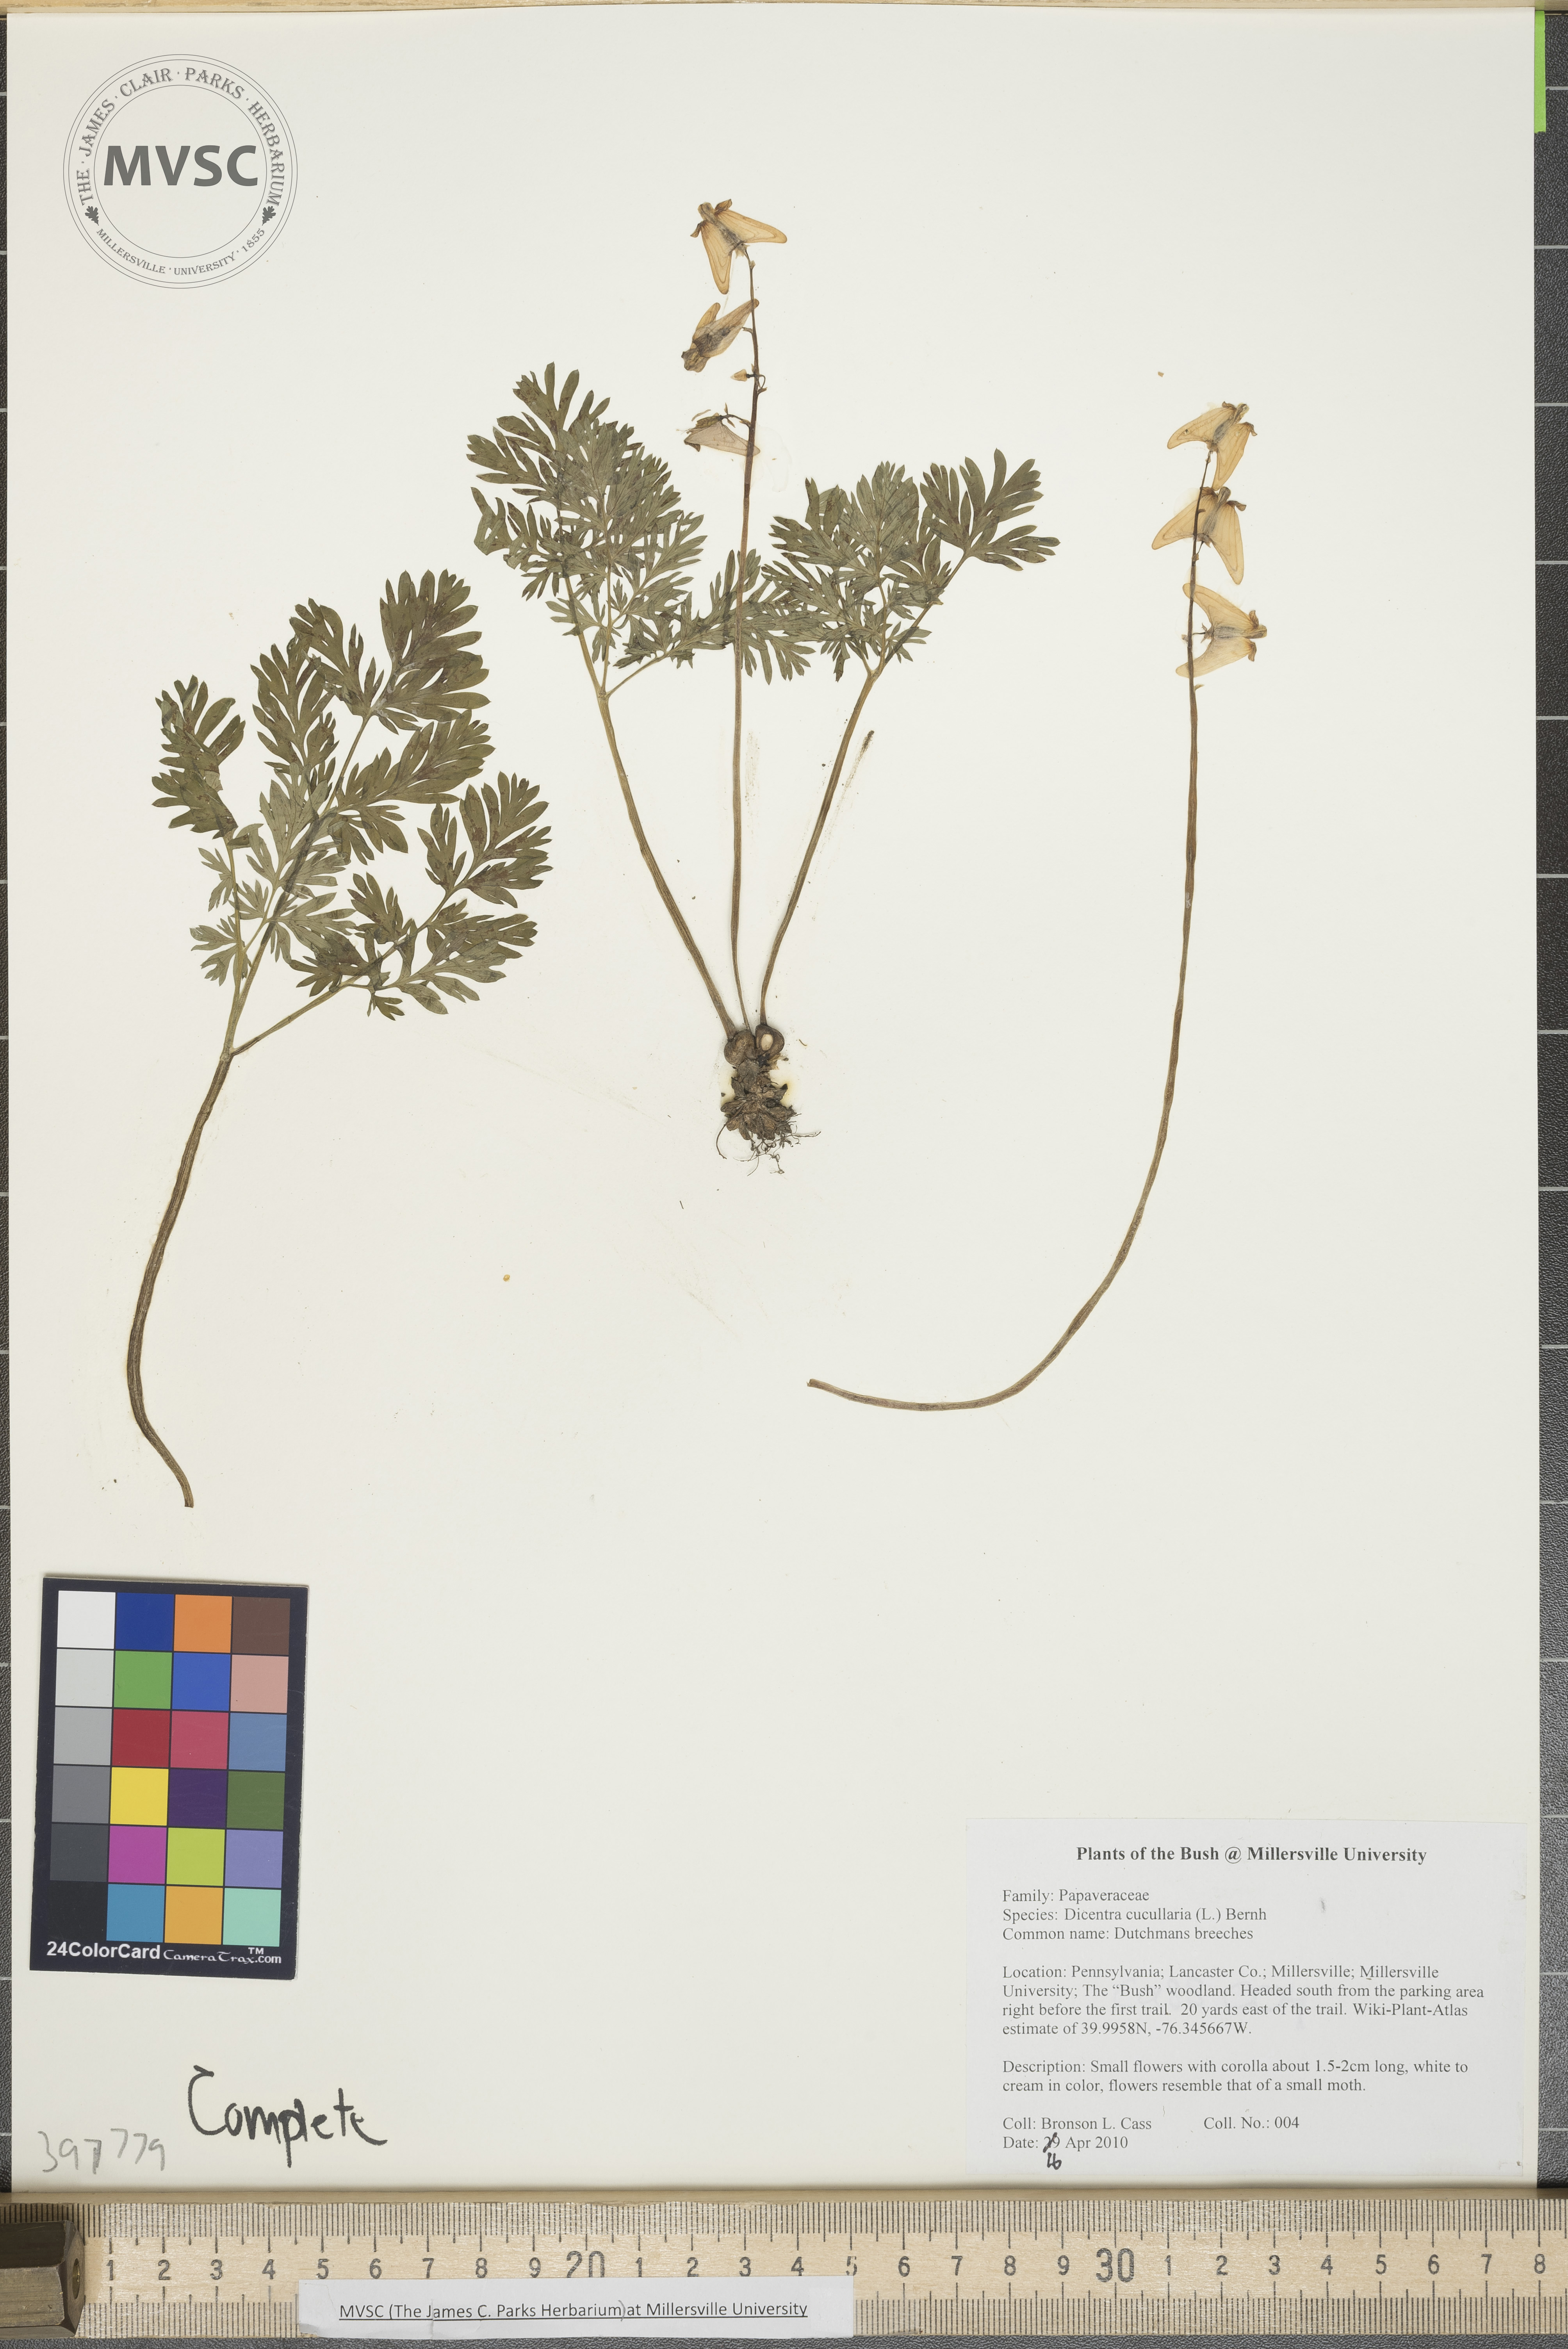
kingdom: Plantae
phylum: Tracheophyta
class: Magnoliopsida
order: Ranunculales
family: Papaveraceae
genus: Dicentra
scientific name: Dicentra cucullaria
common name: Dutchman's-breeches
